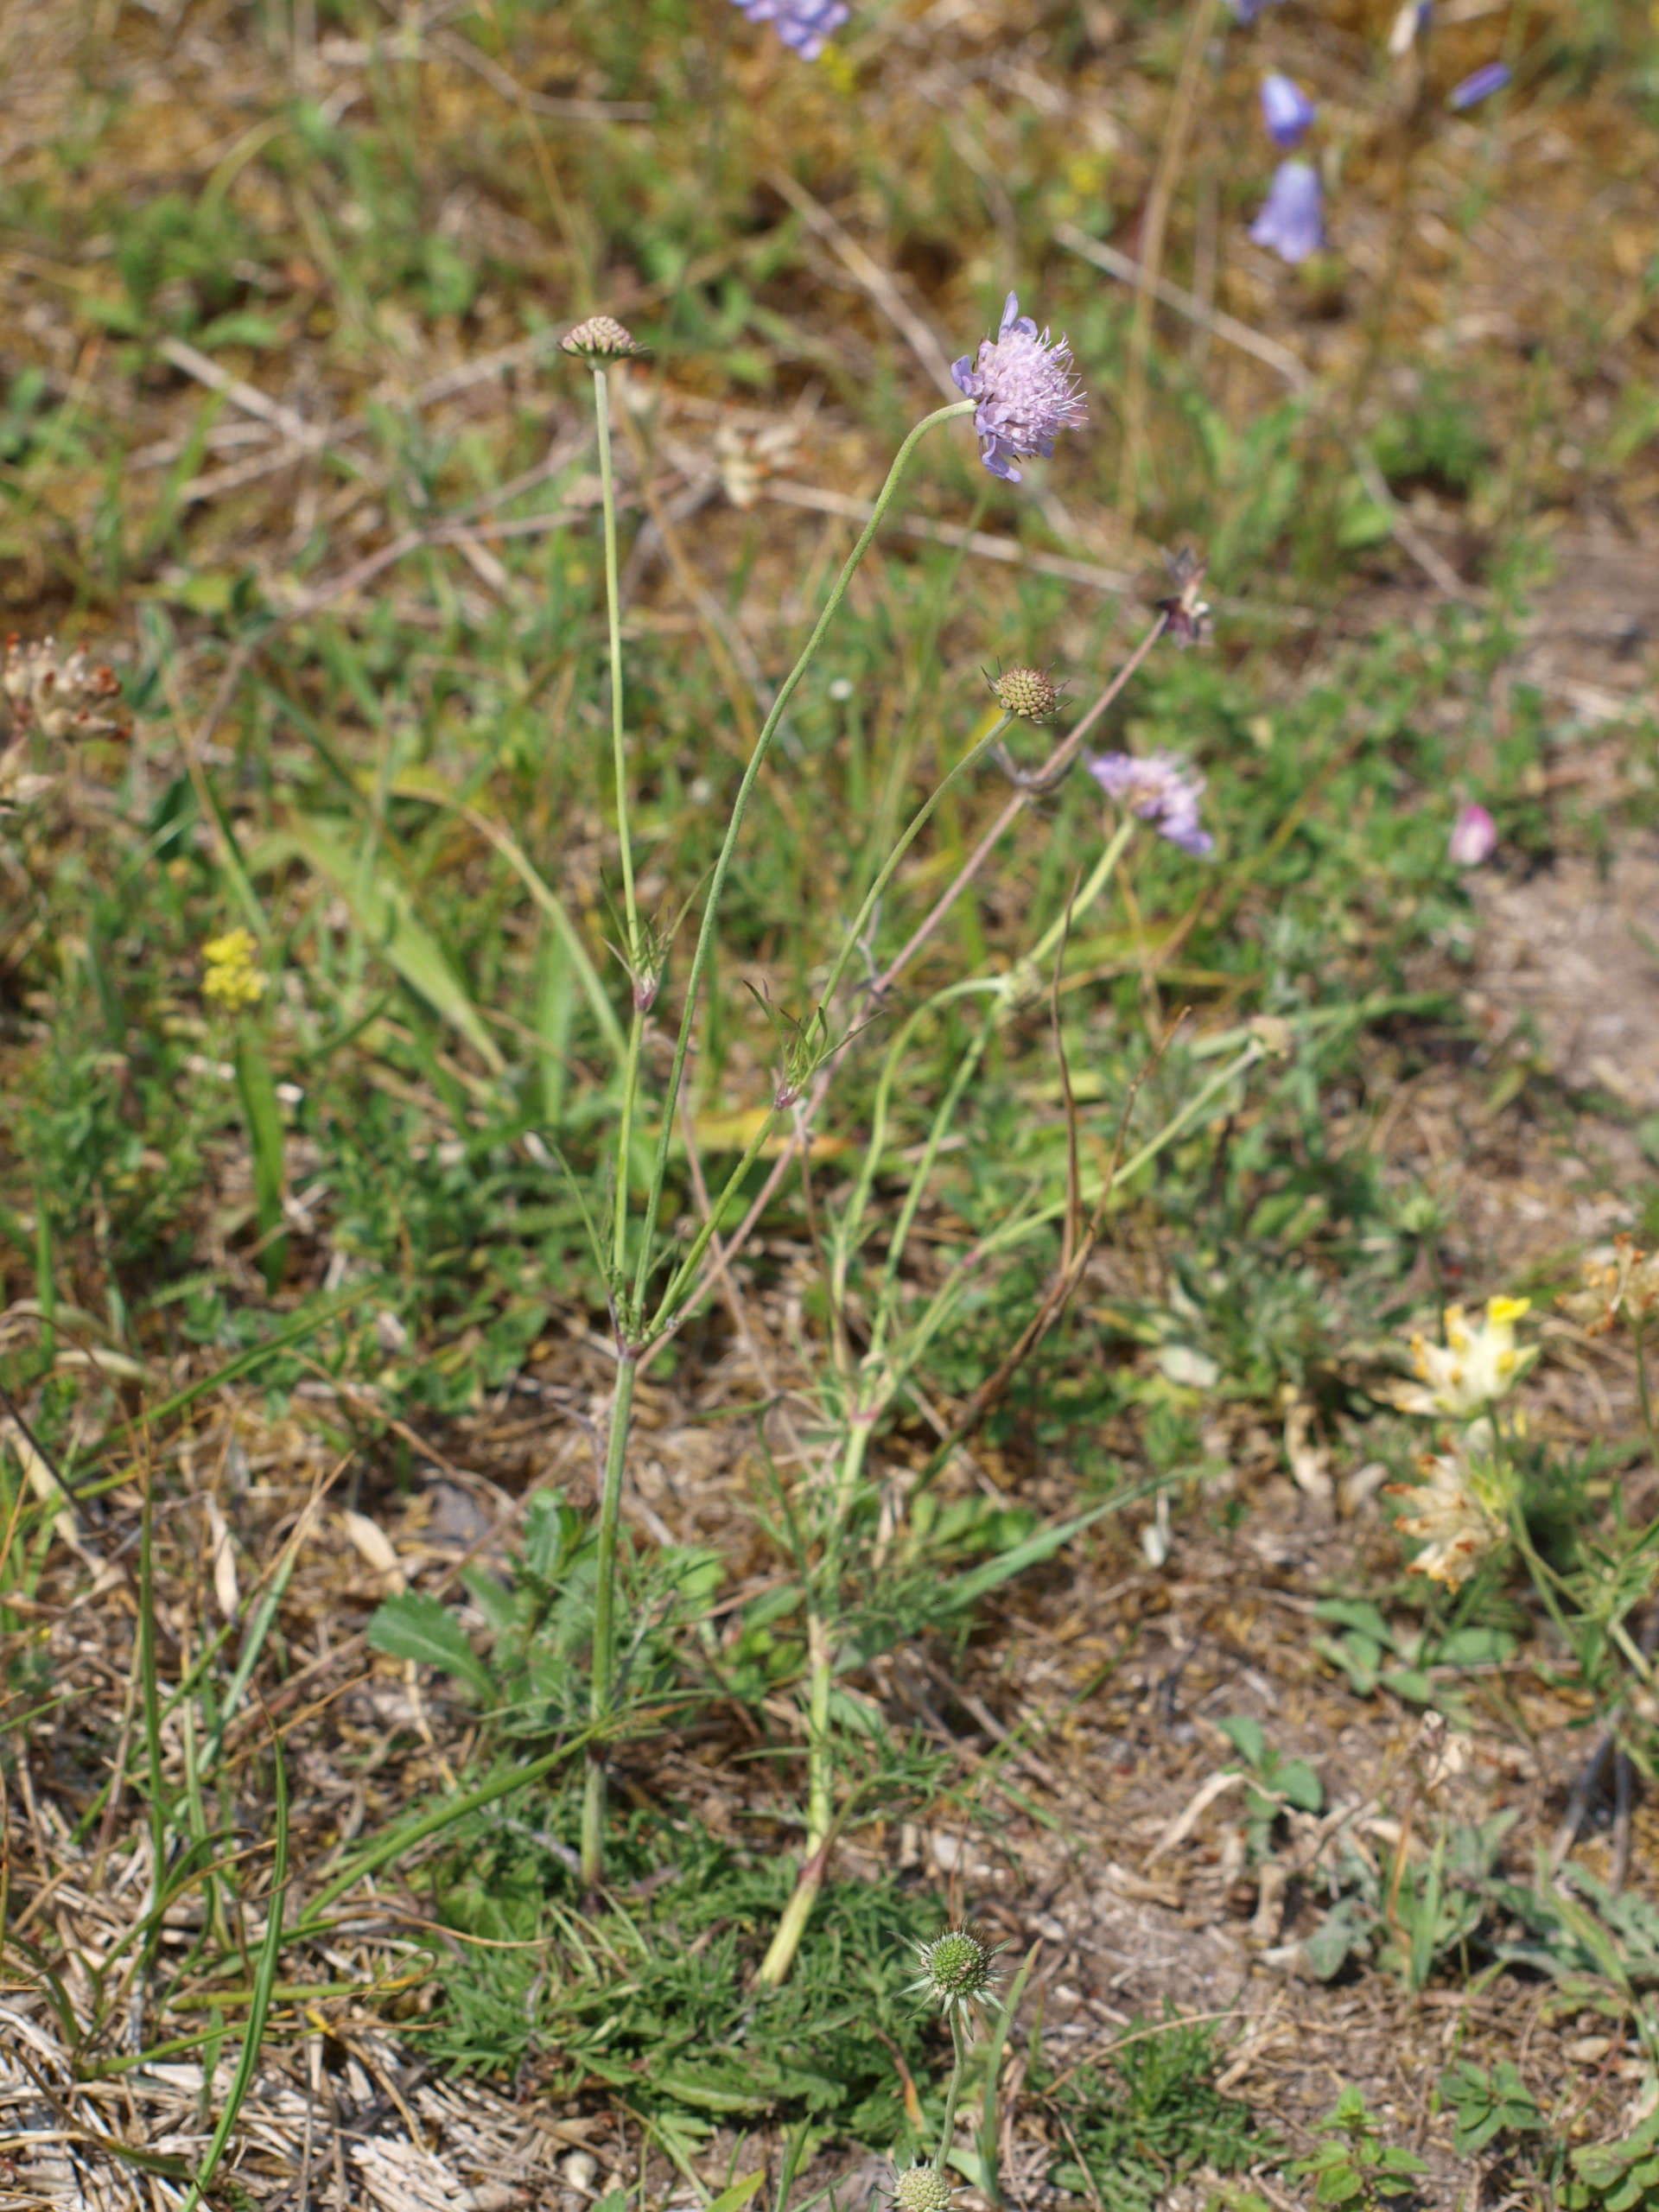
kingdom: Plantae
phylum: Tracheophyta
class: Magnoliopsida
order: Dipsacales
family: Caprifoliaceae
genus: Scabiosa
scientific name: Scabiosa columbaria
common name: Due-skabiose
